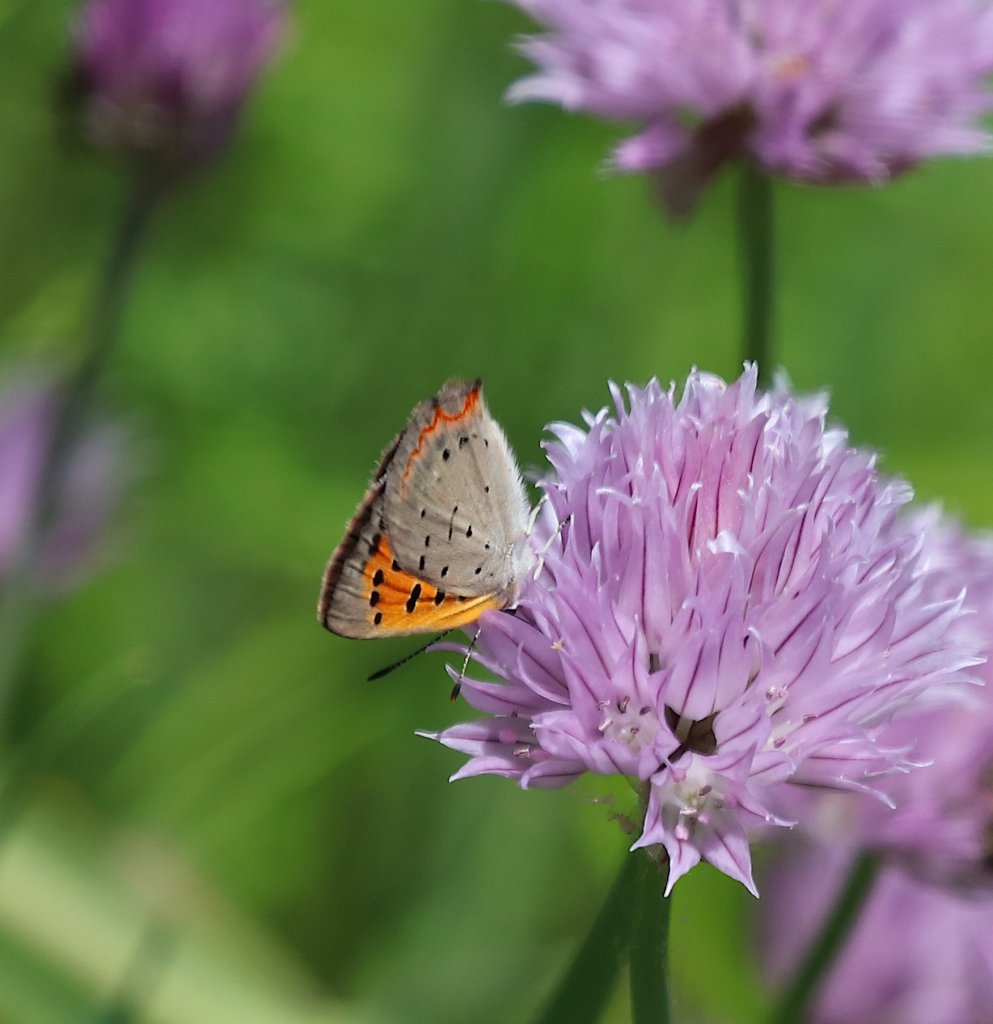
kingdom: Animalia
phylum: Arthropoda
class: Insecta
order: Lepidoptera
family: Lycaenidae
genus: Lycaena
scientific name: Lycaena phlaeas
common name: American Copper
